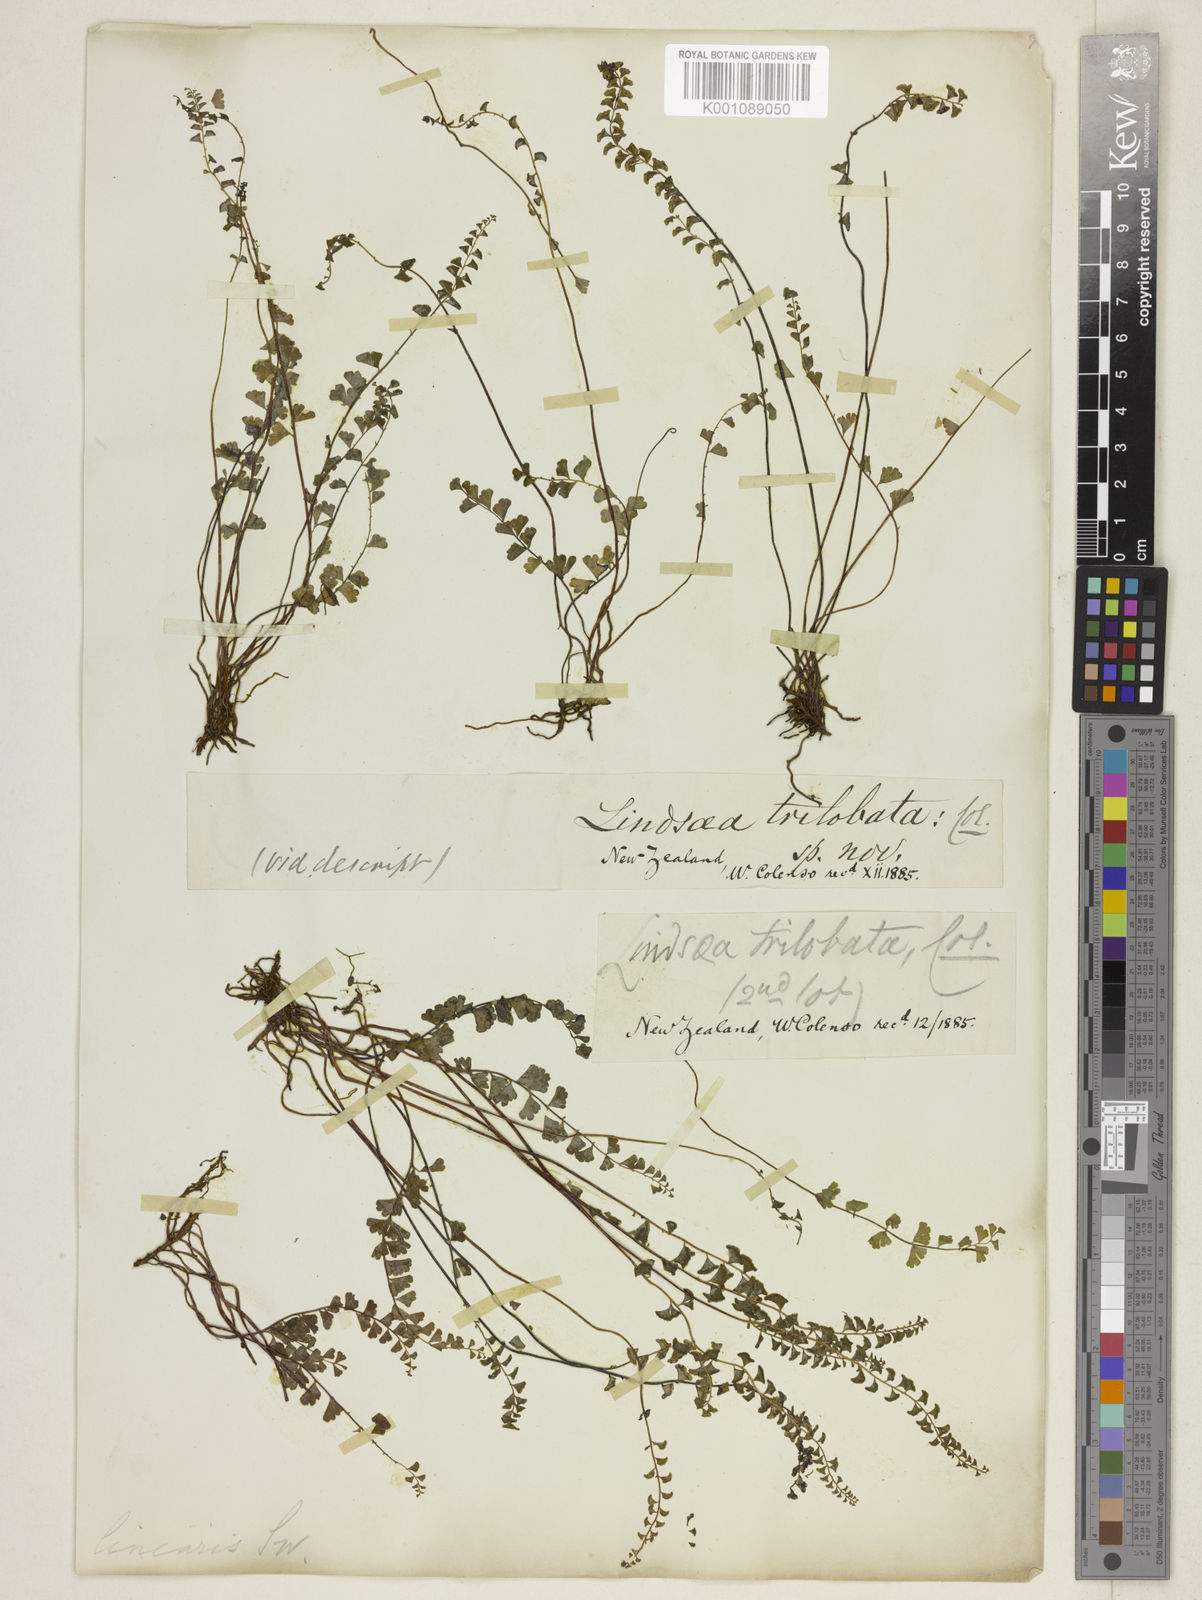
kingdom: Plantae
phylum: Tracheophyta
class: Polypodiopsida
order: Polypodiales
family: Lindsaeaceae
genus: Lindsaea
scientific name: Lindsaea linearis
